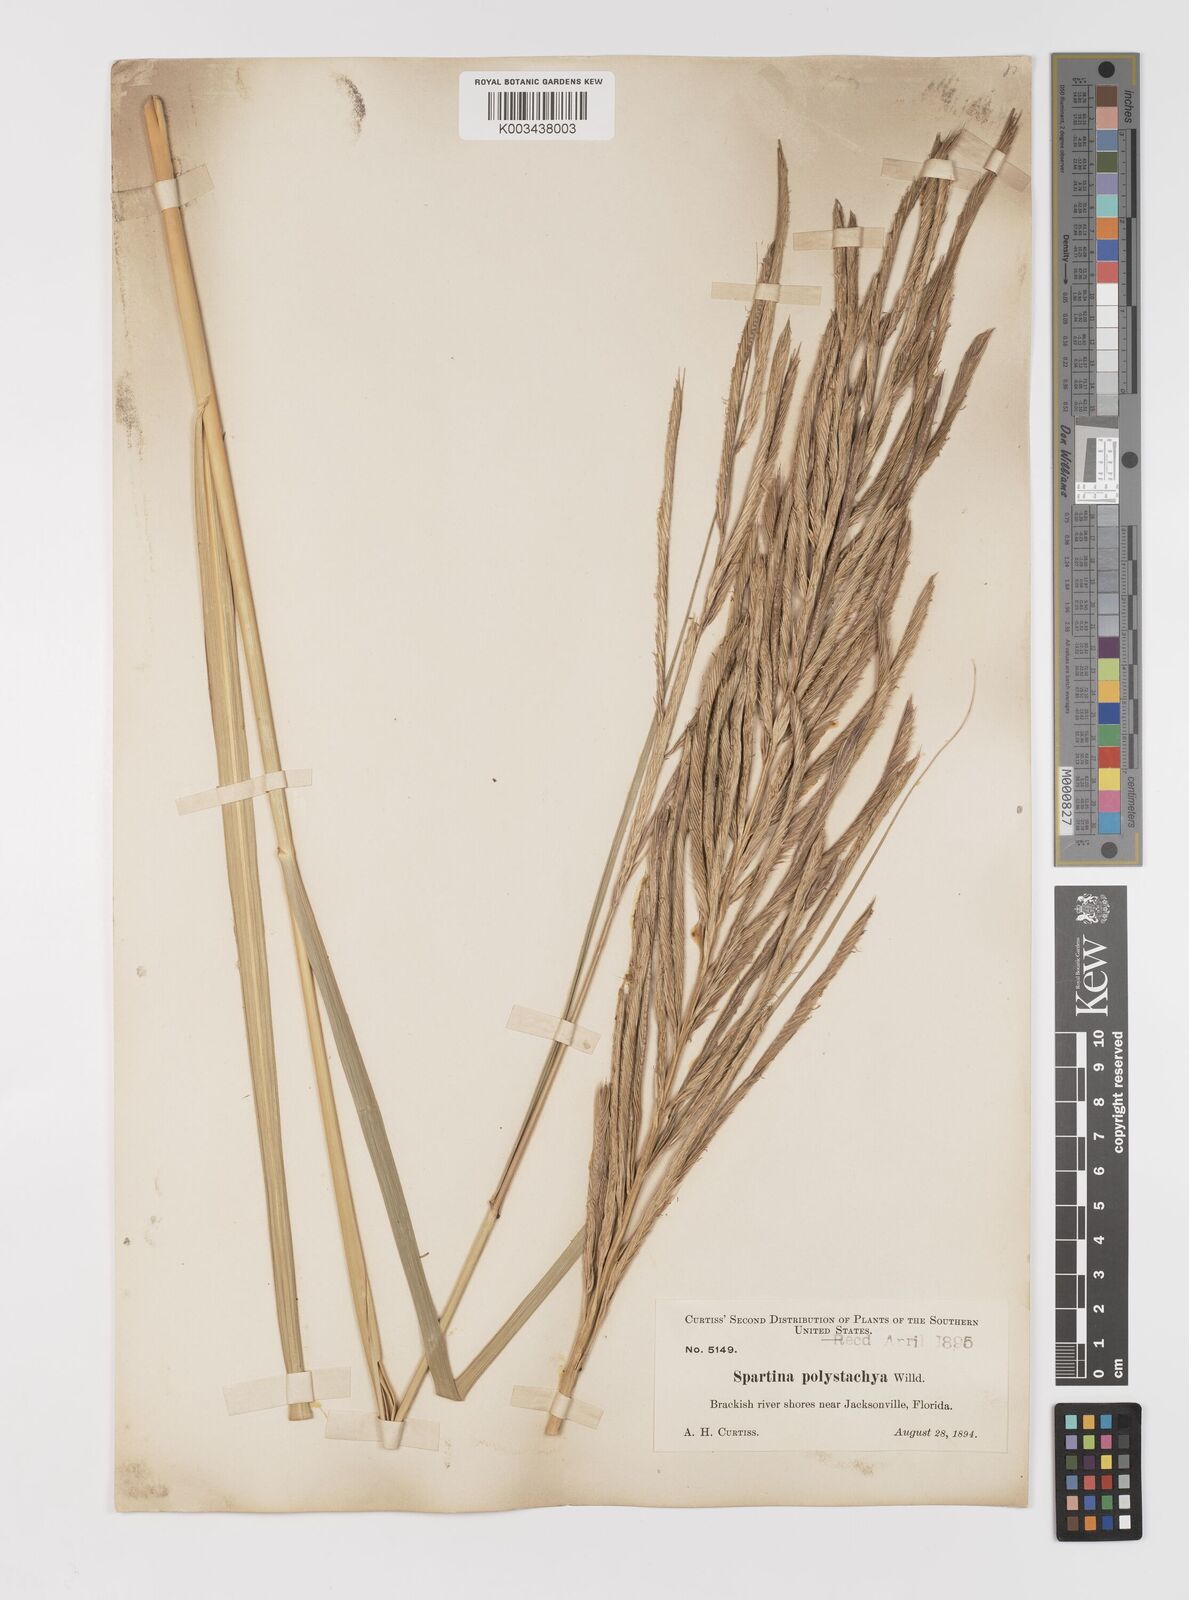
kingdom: Plantae
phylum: Tracheophyta
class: Liliopsida
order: Poales
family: Poaceae
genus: Sporobolus
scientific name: Sporobolus cynosuroides
